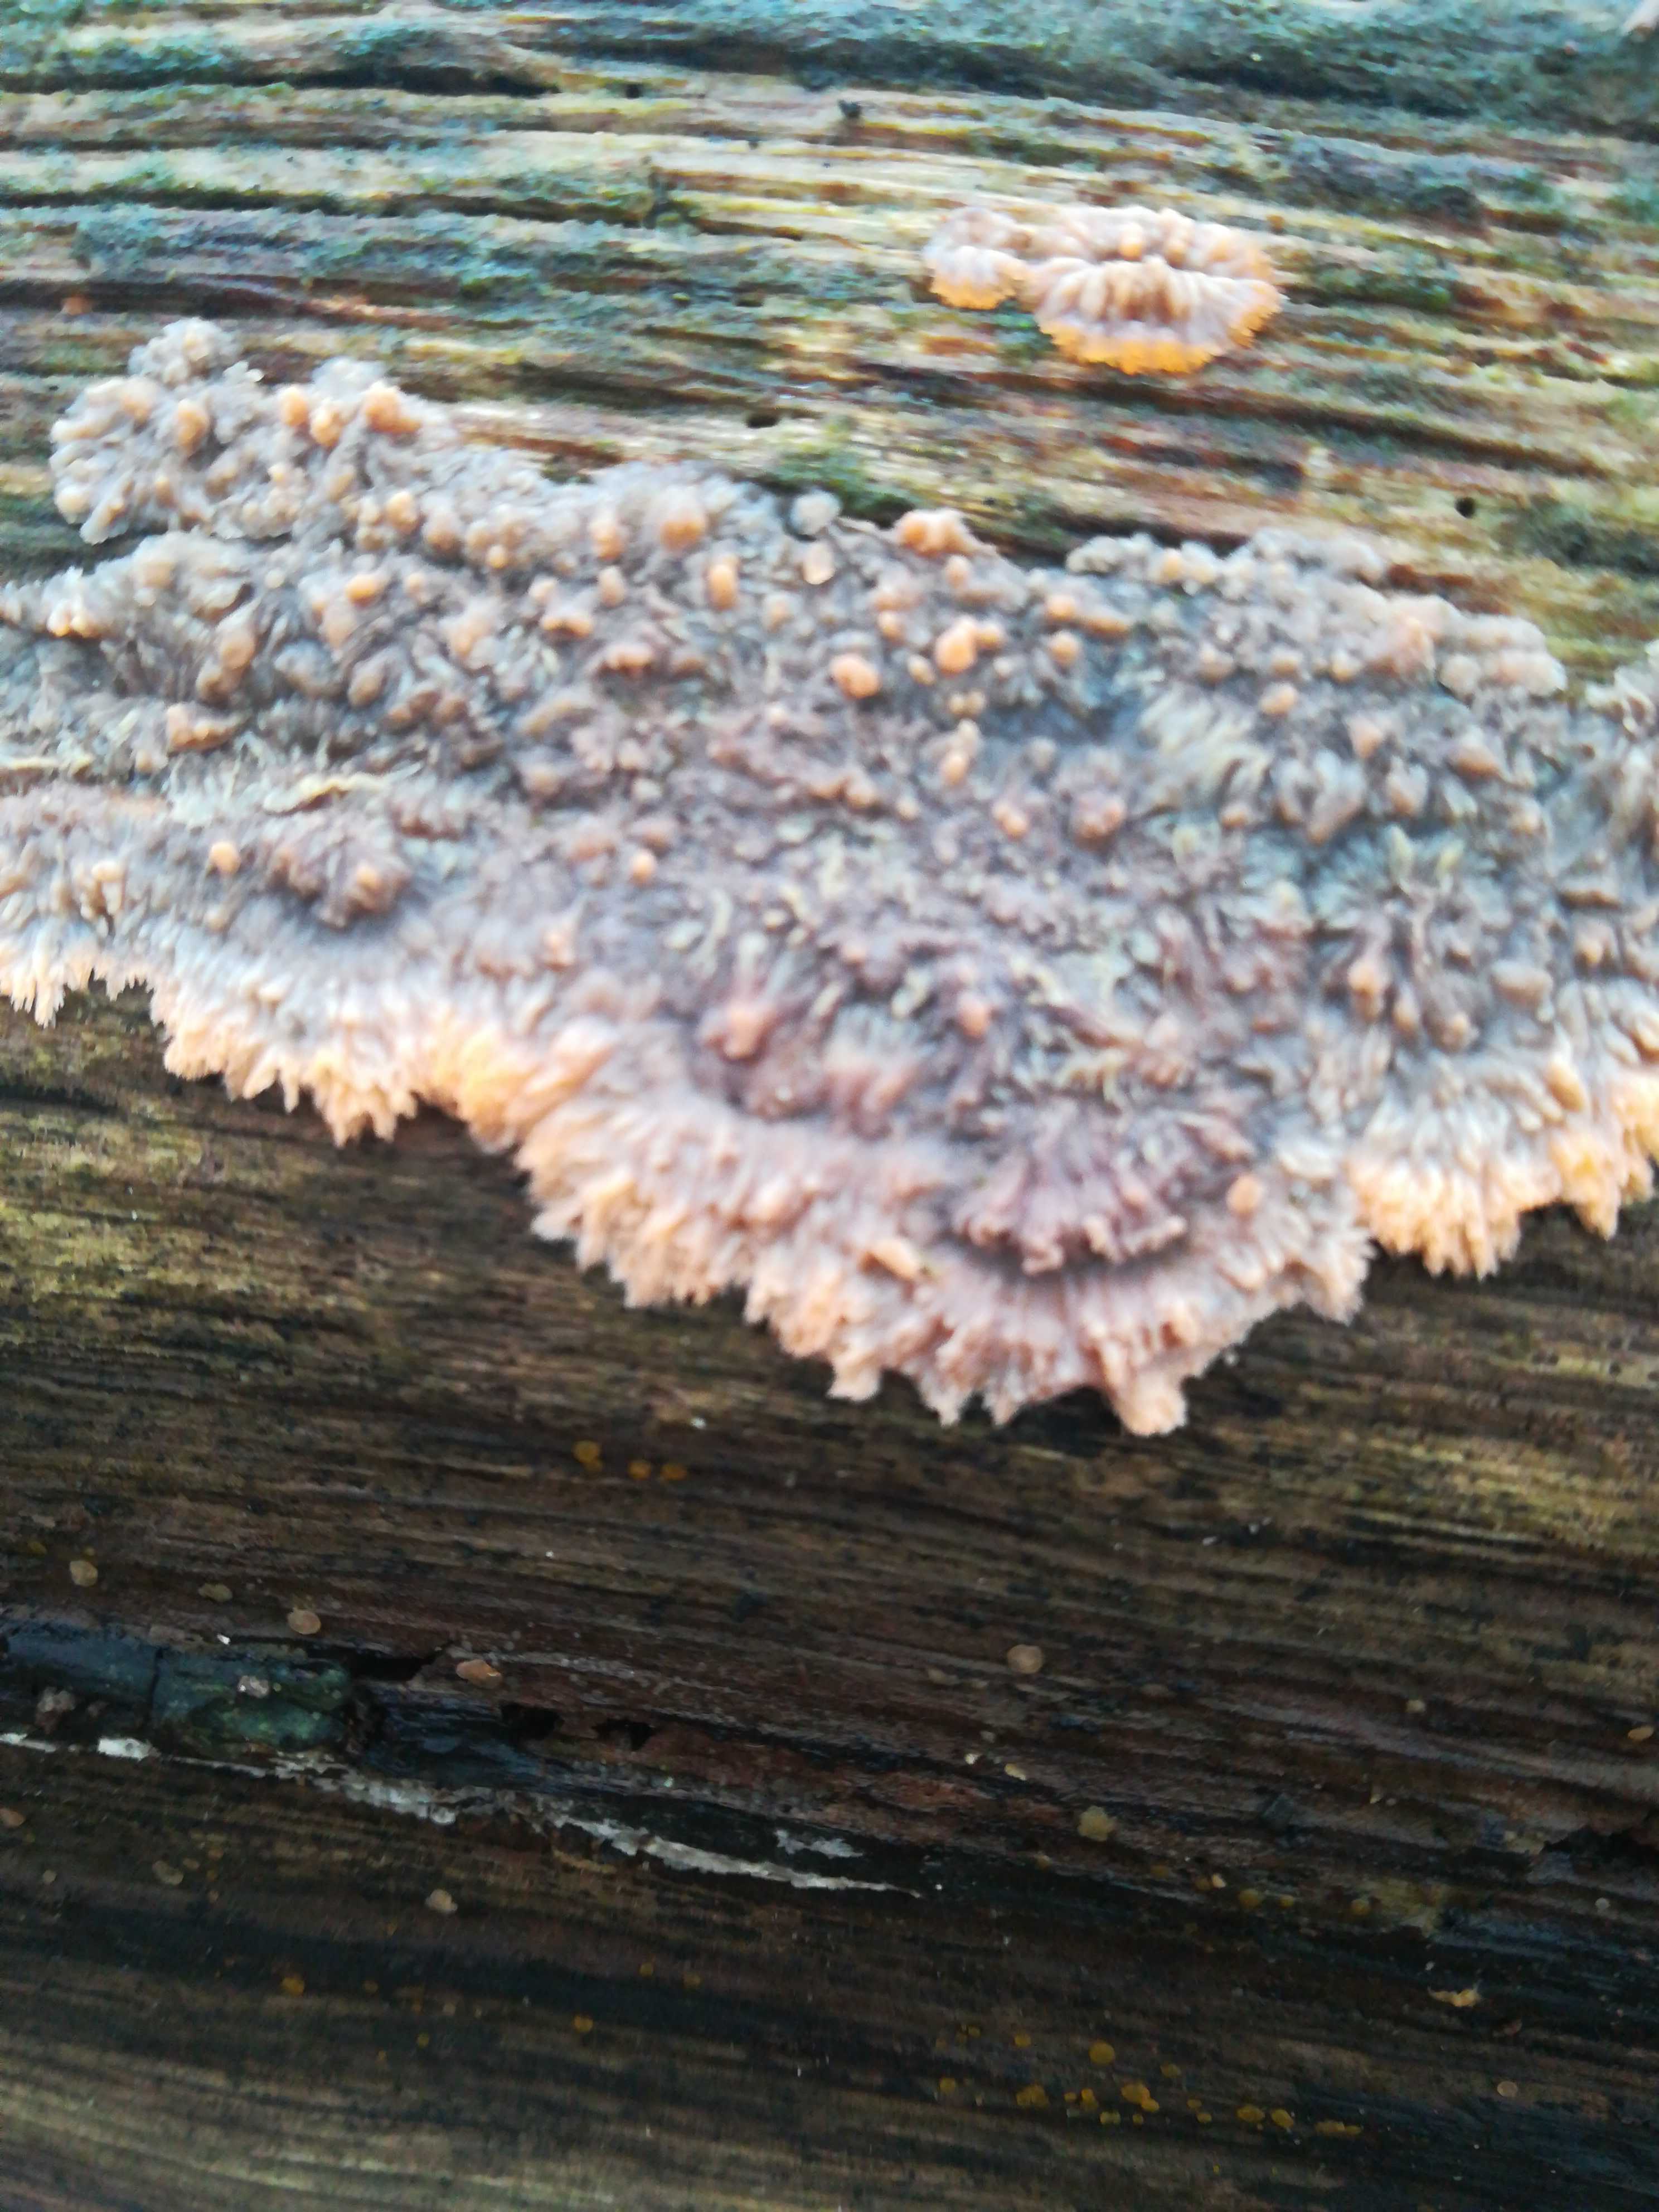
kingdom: Fungi
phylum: Basidiomycota
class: Agaricomycetes
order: Polyporales
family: Meruliaceae
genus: Phlebia
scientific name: Phlebia radiata
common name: stråle-åresvamp
